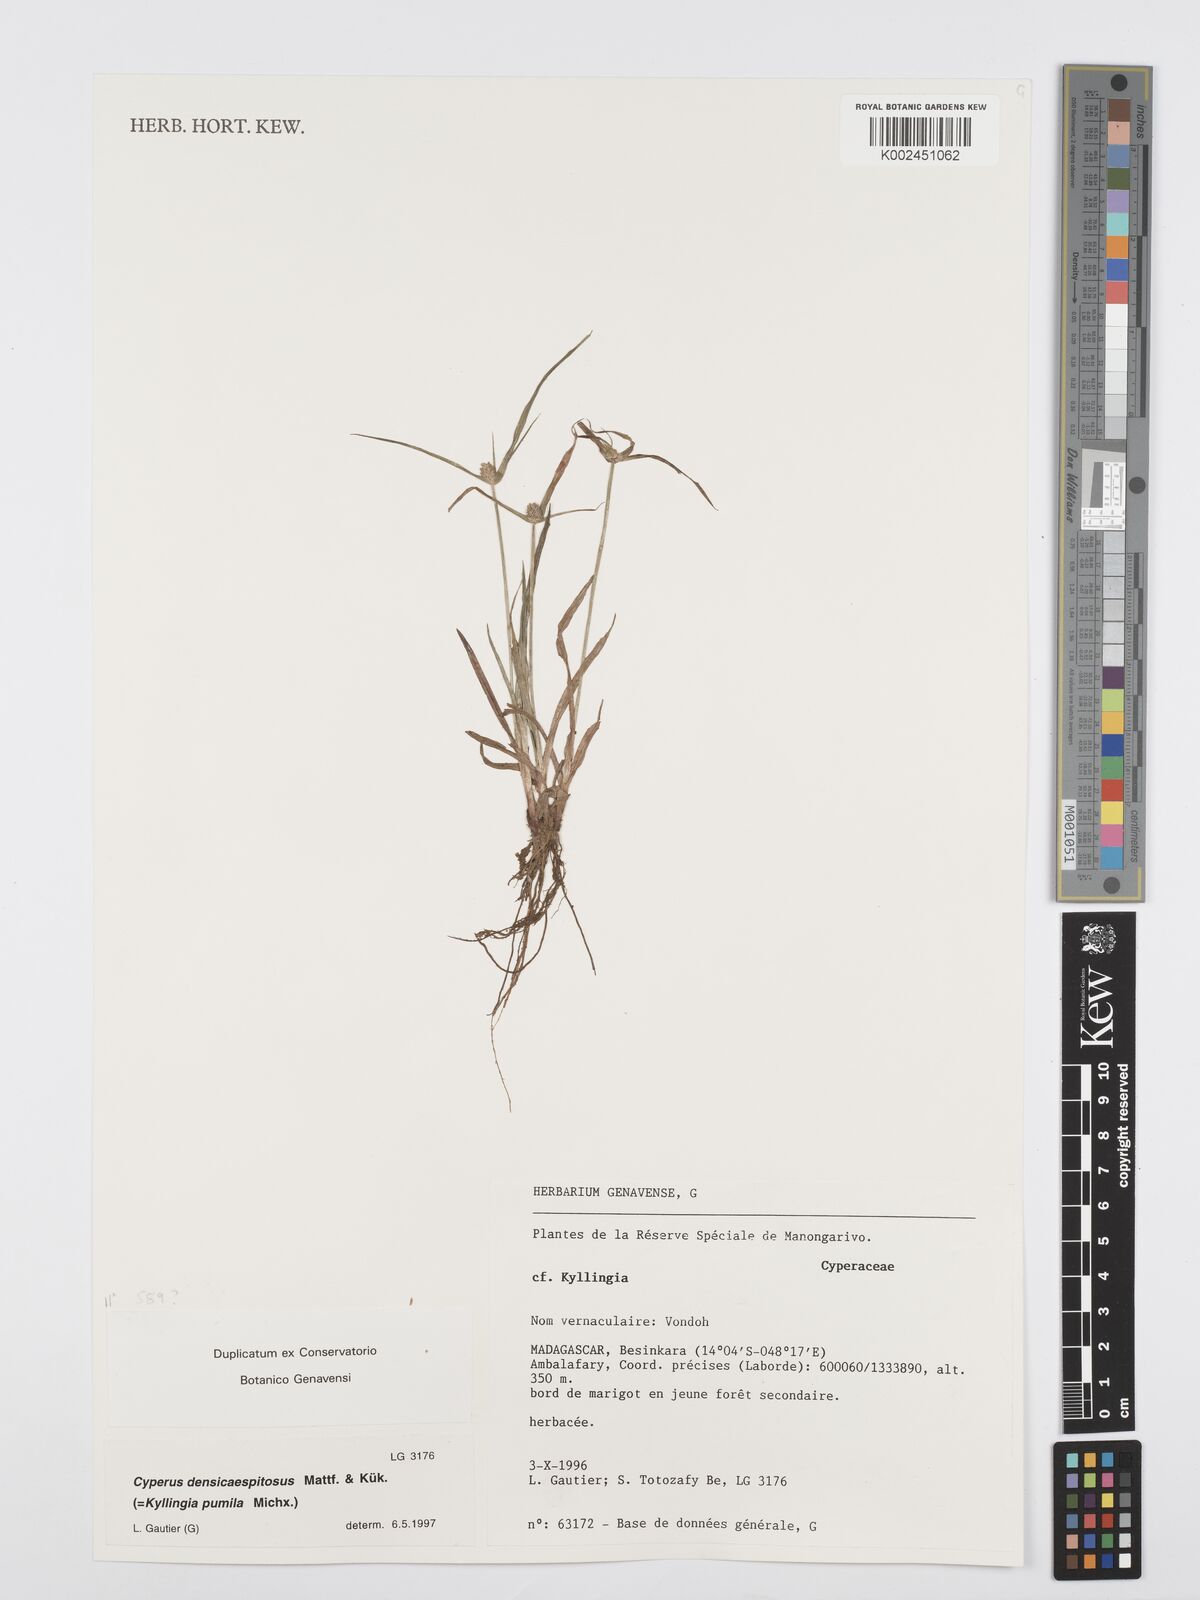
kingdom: Plantae
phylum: Tracheophyta
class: Liliopsida
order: Poales
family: Cyperaceae
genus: Cyperus
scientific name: Cyperus pumilus
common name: Low flatsedge
